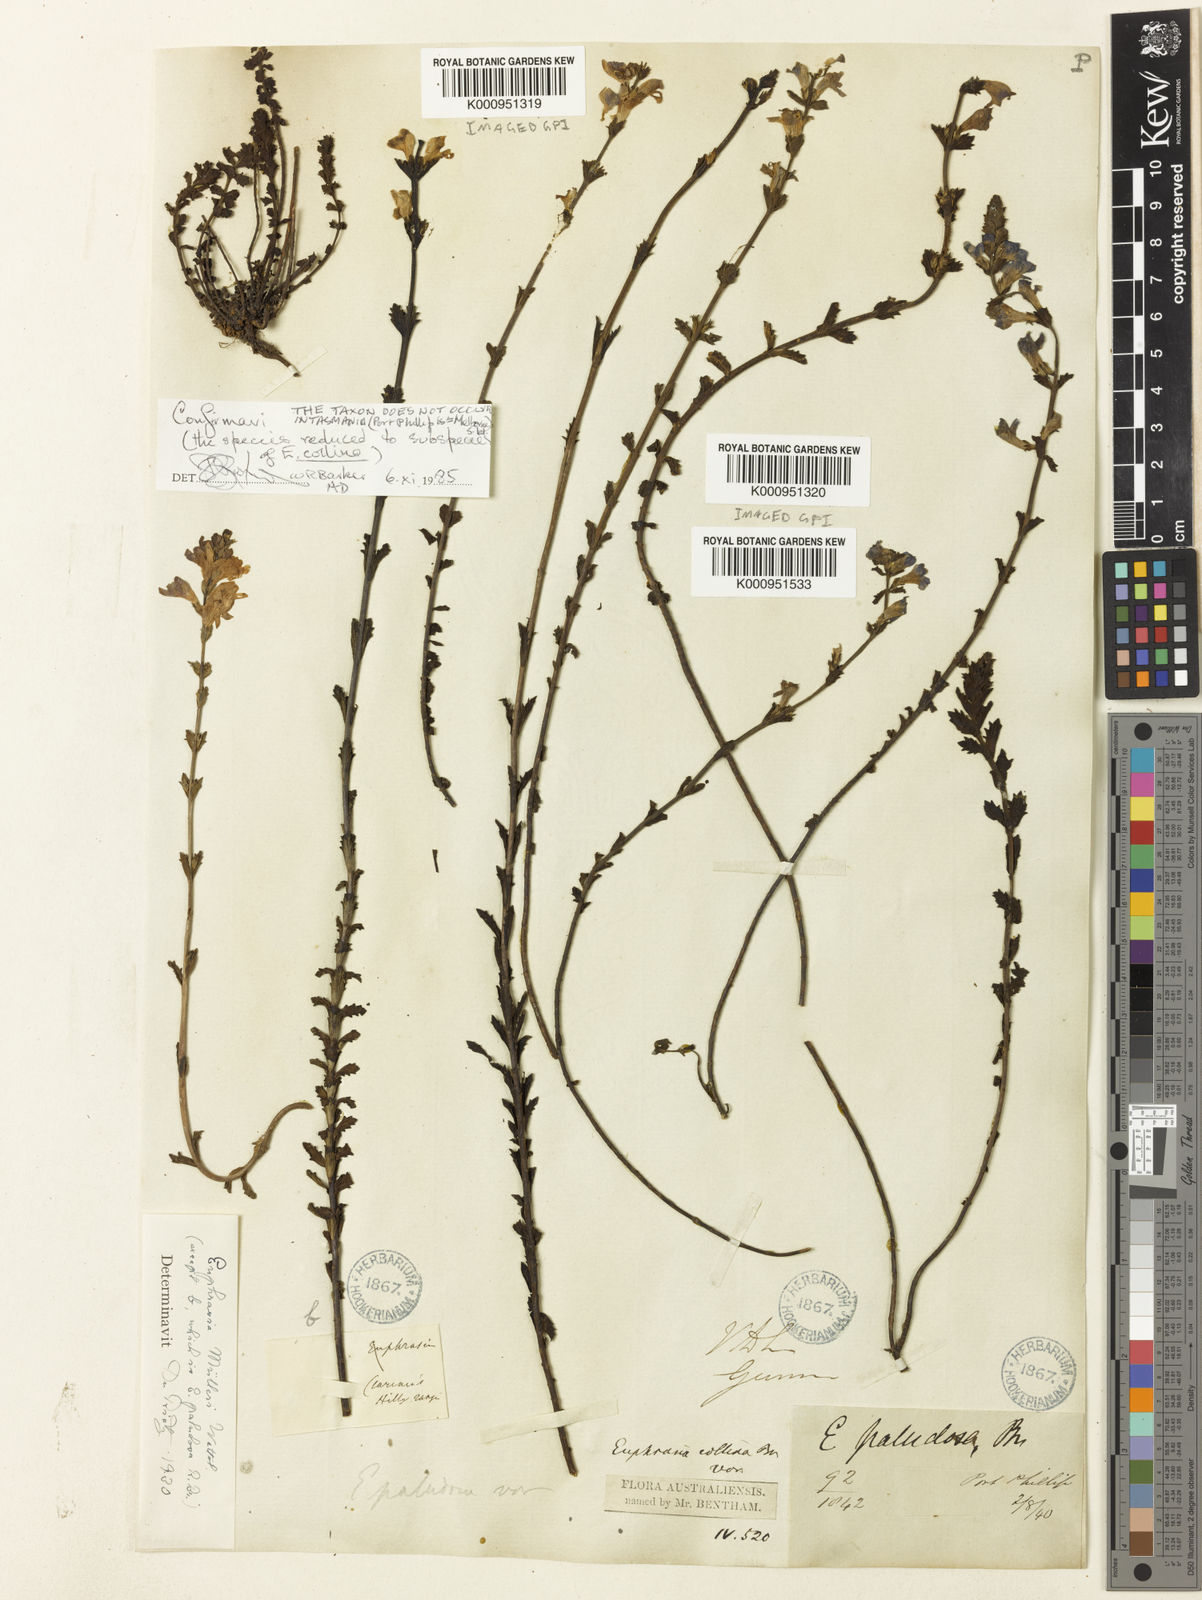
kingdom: Plantae
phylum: Tracheophyta
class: Magnoliopsida
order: Lamiales
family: Orobanchaceae
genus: Euphrasia
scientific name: Euphrasia collina
